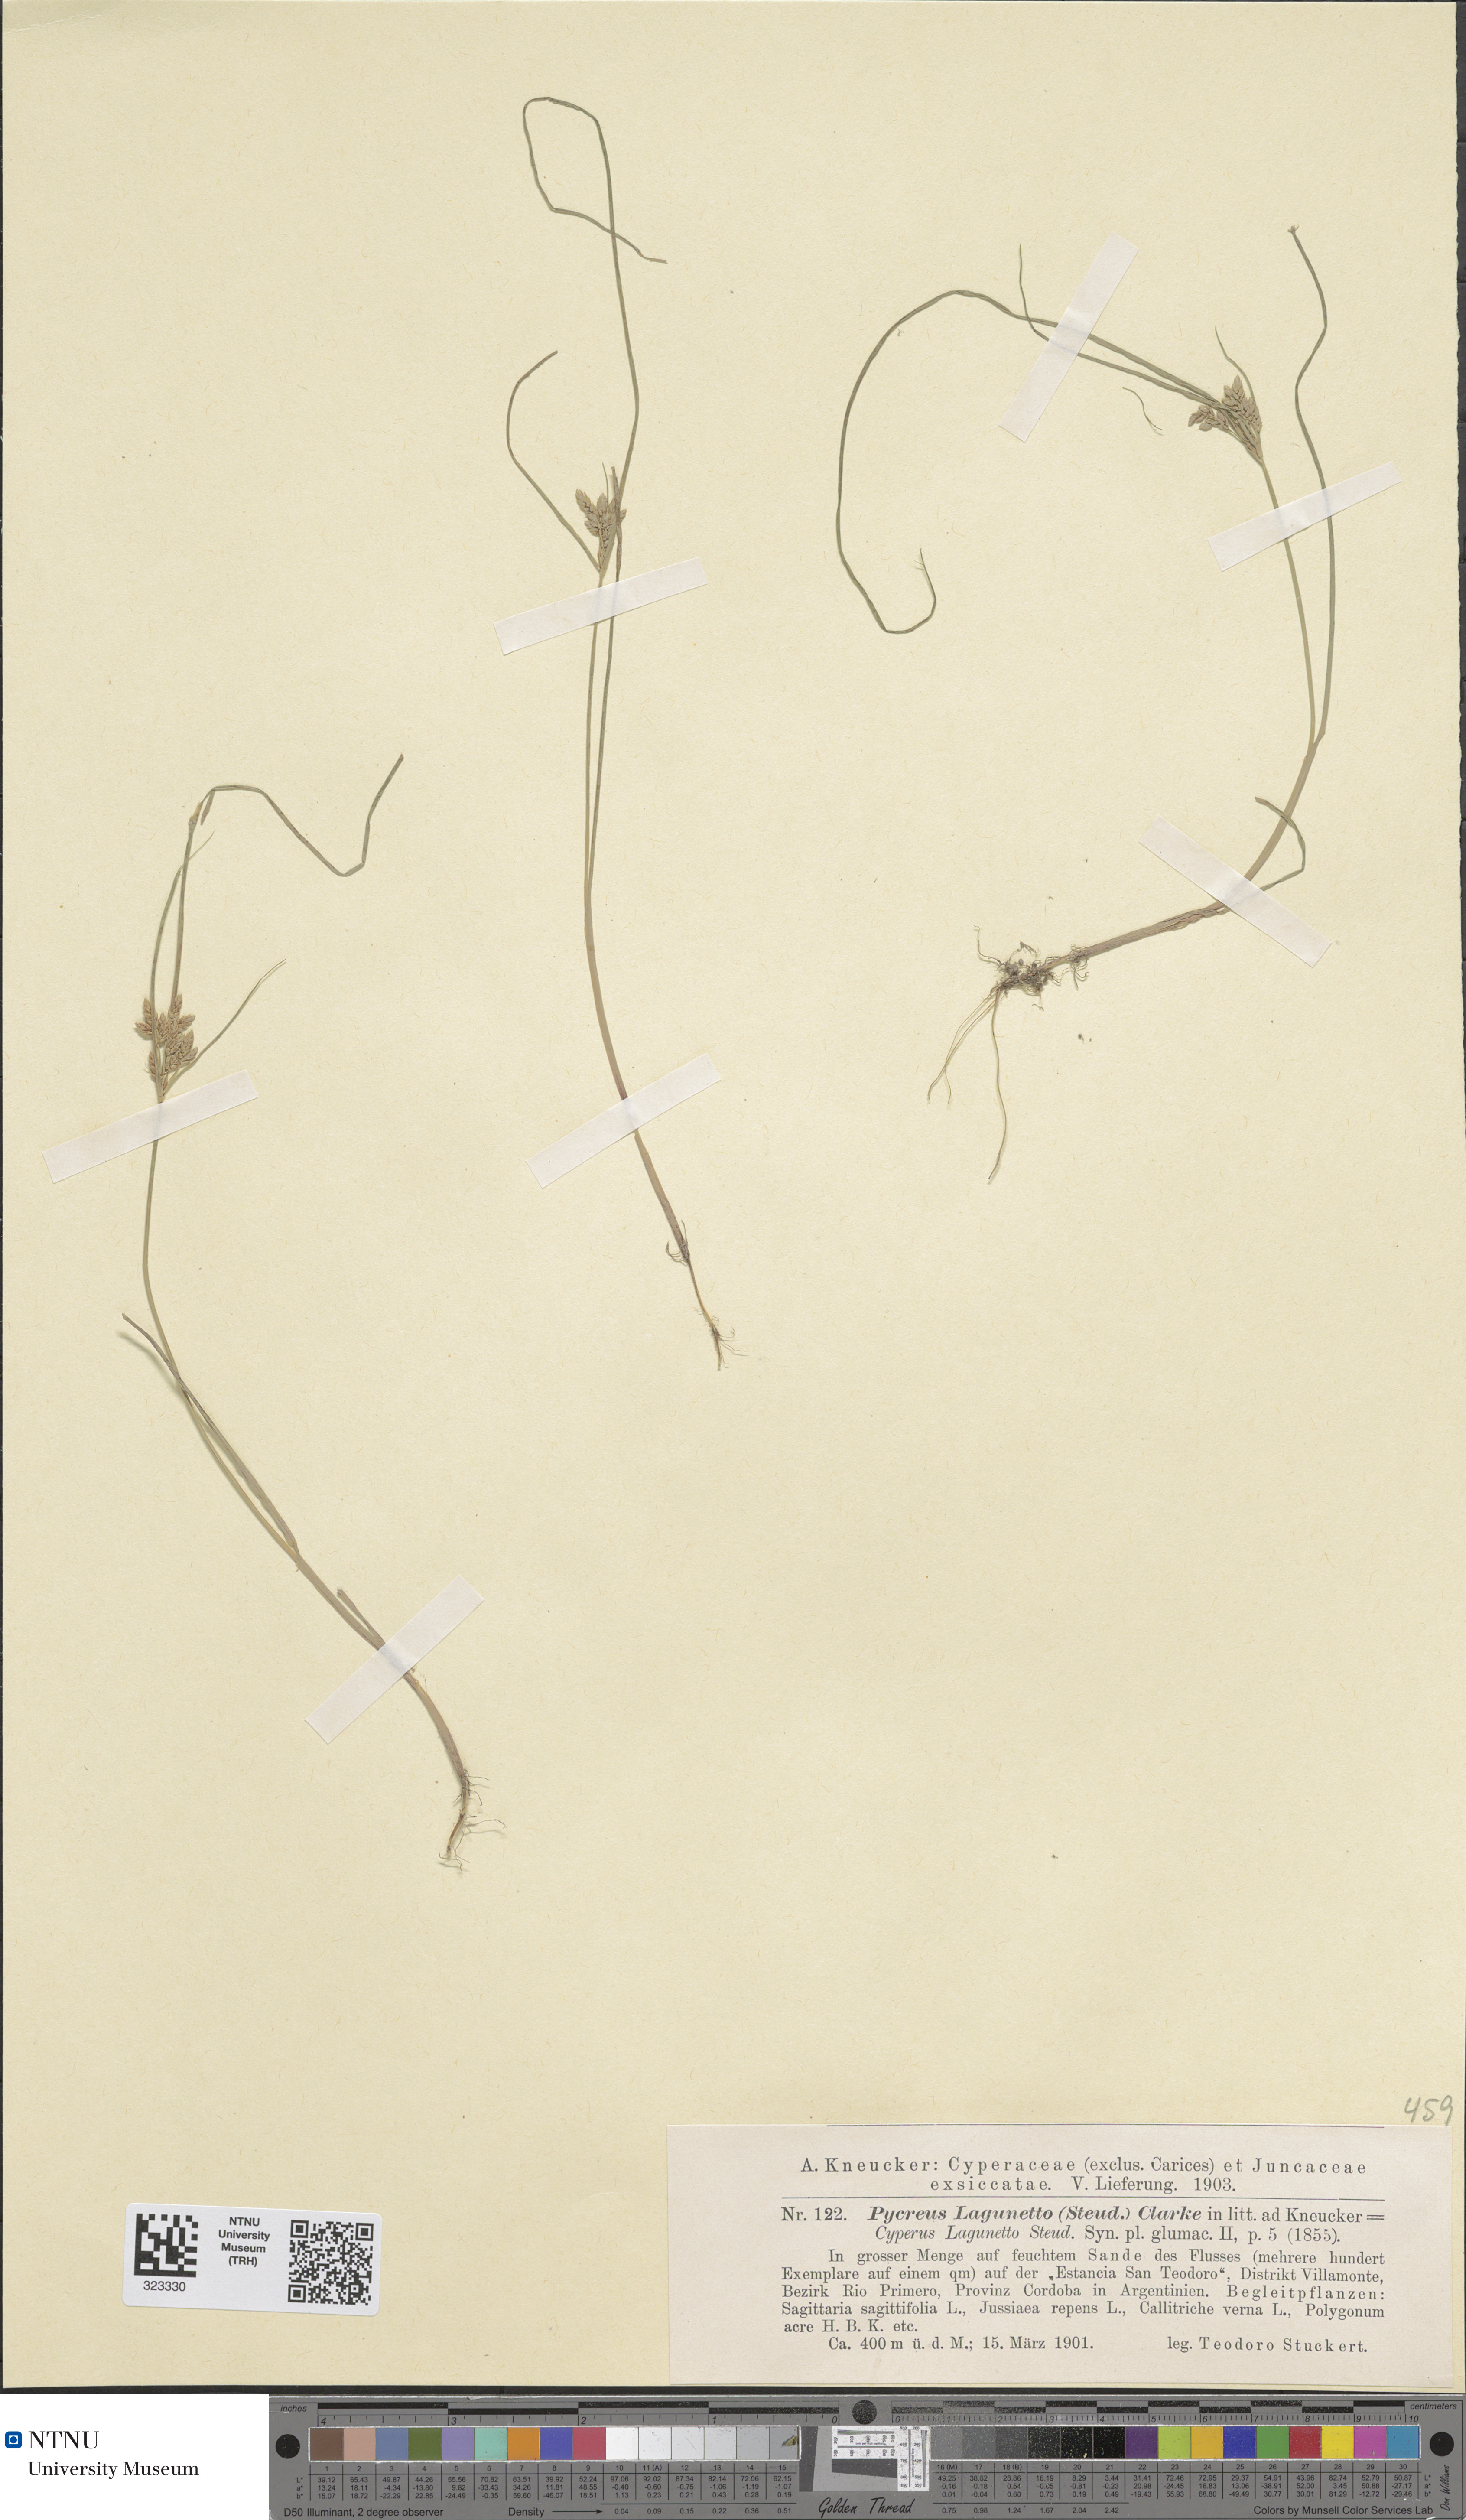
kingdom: Plantae
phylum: Tracheophyta
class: Liliopsida
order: Poales
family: Cyperaceae
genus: Cyperus
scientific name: Cyperus bipartitus
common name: Brook flatsedge
